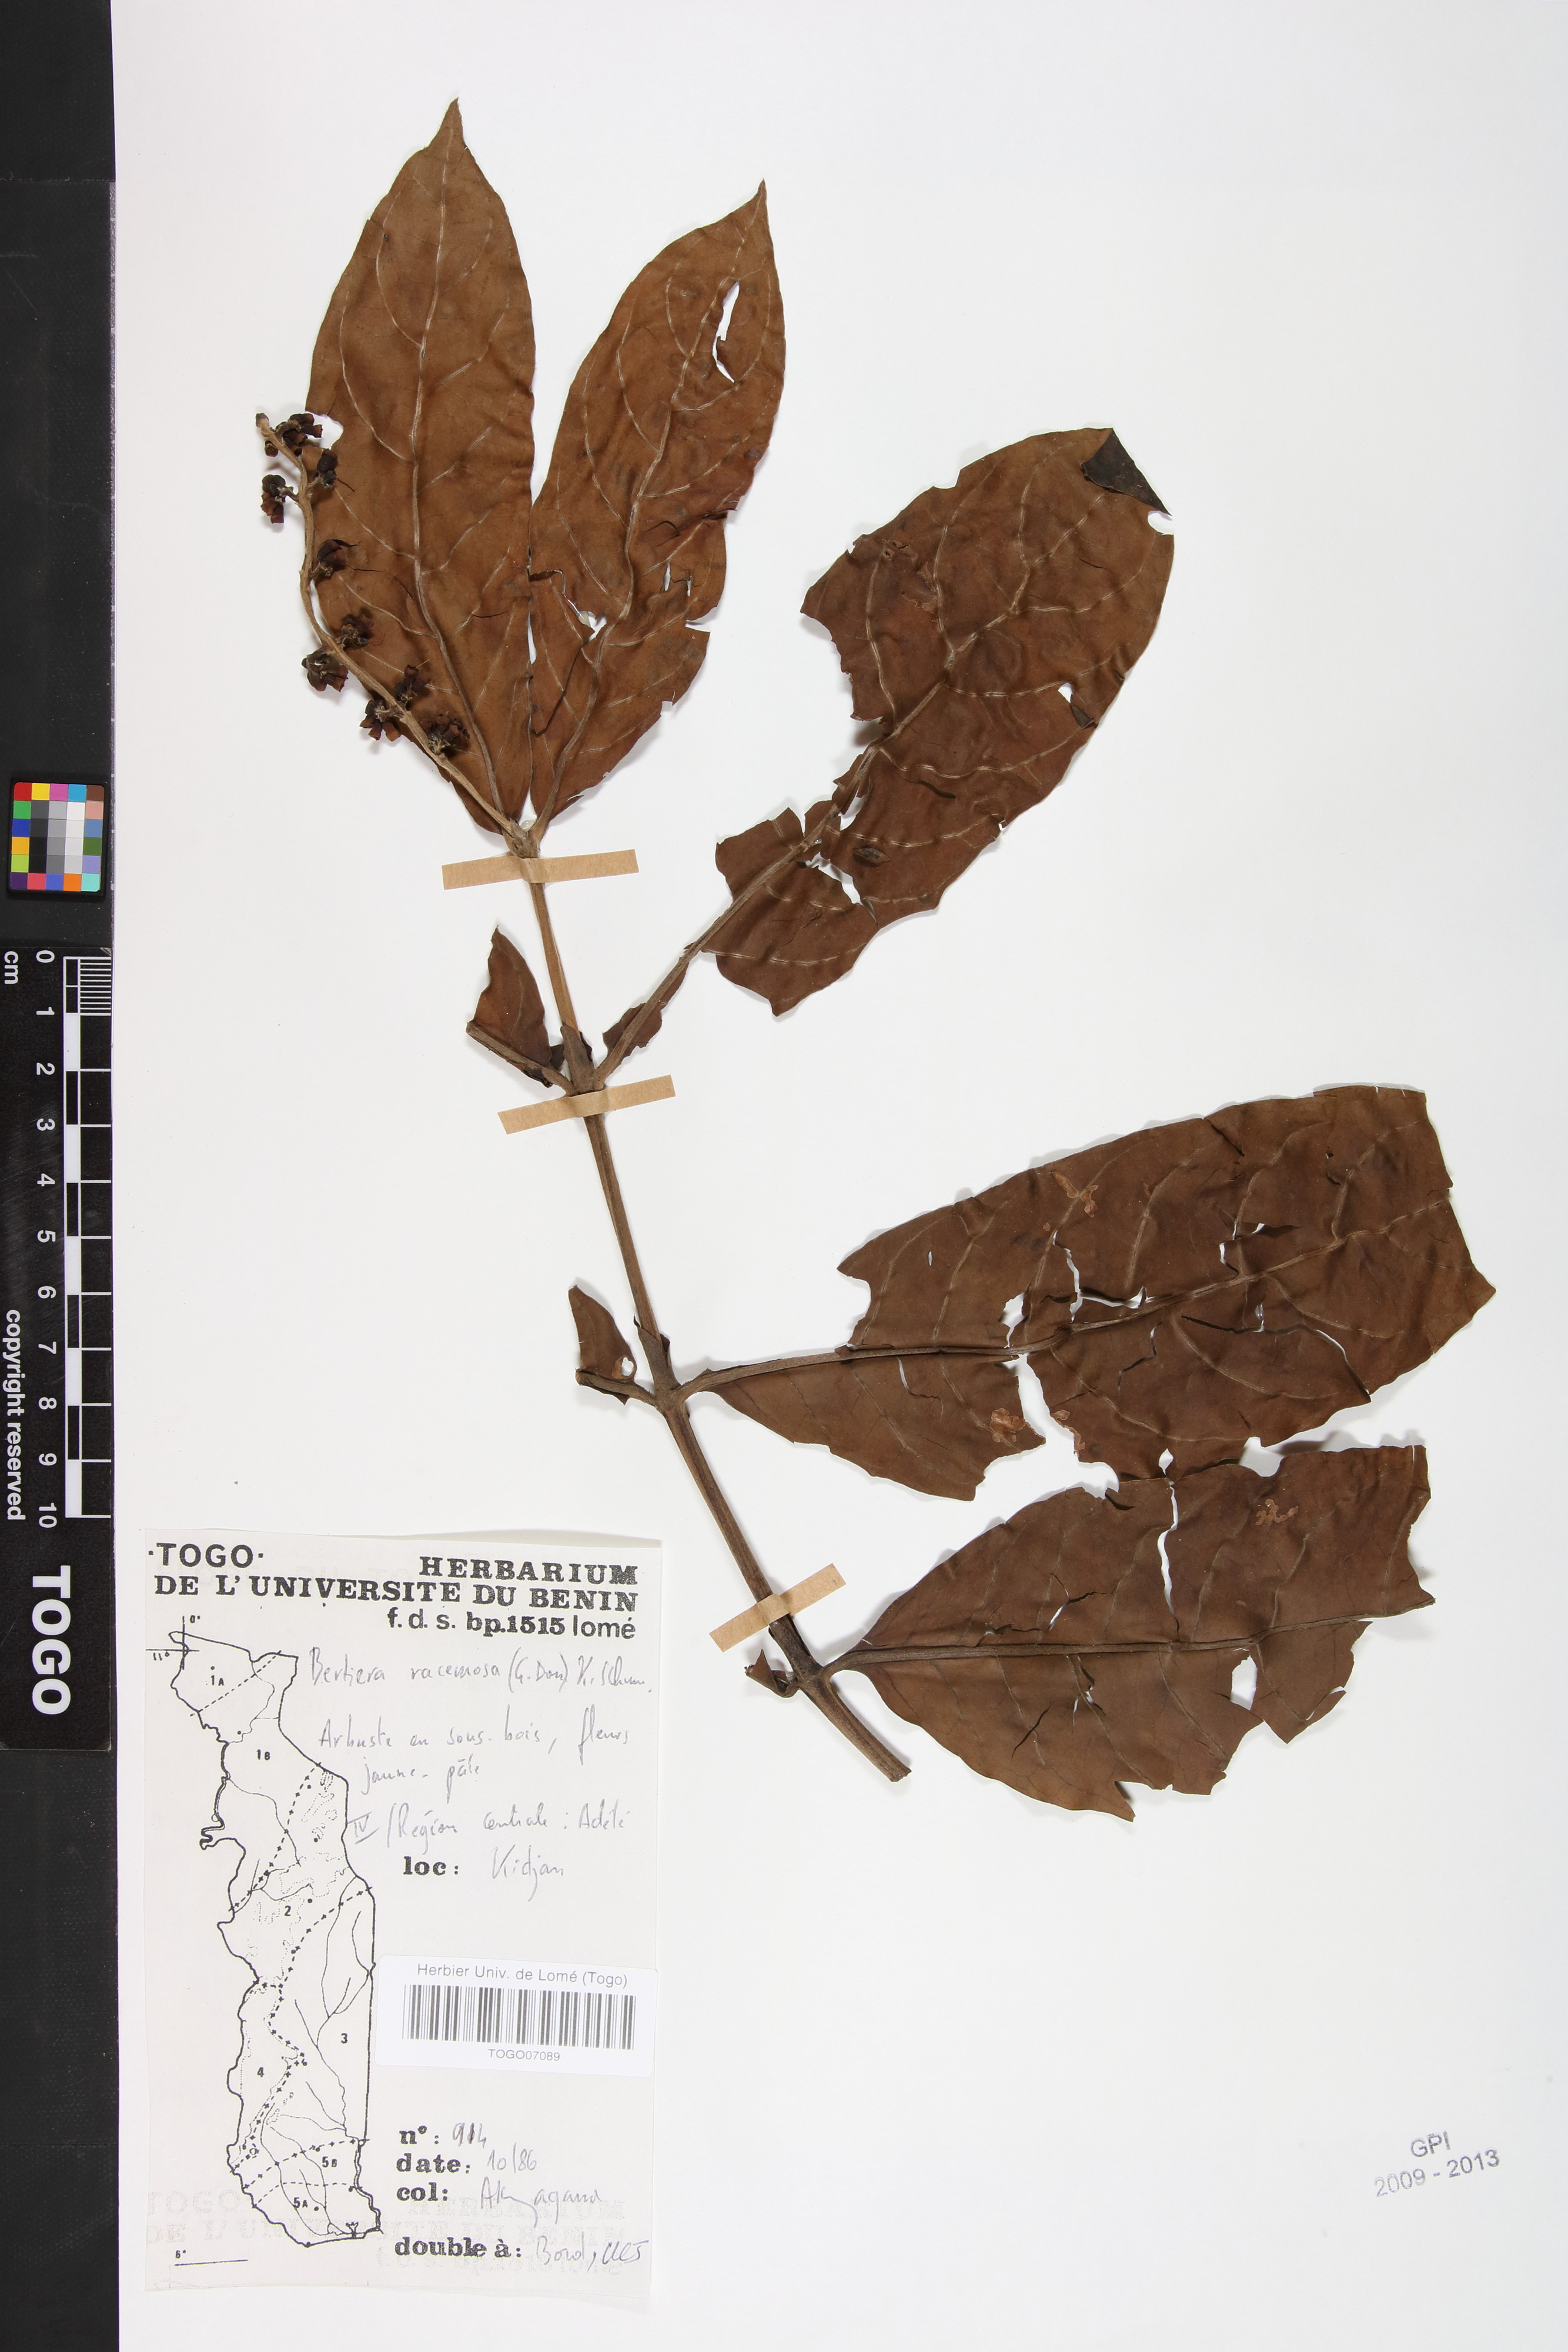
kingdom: Plantae
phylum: Tracheophyta
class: Magnoliopsida
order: Gentianales
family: Rubiaceae
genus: Bertiera
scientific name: Bertiera racemosa
